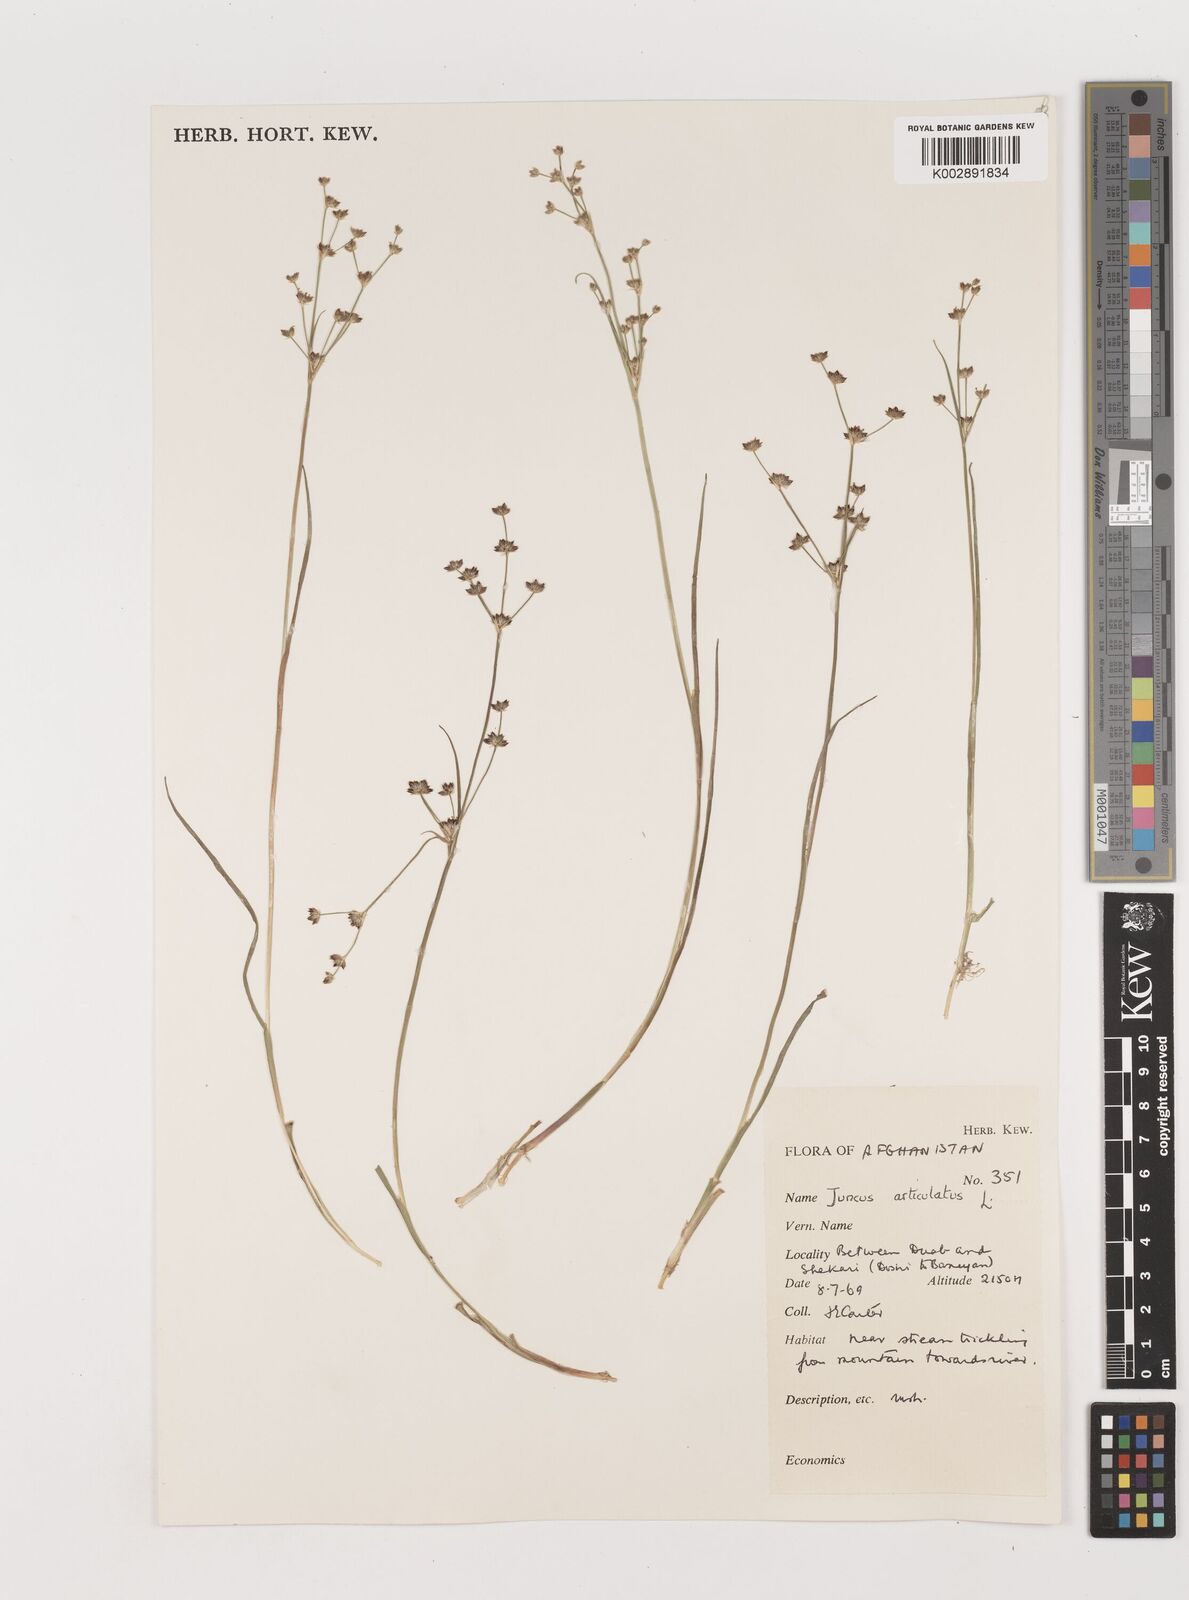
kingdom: Plantae
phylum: Tracheophyta
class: Liliopsida
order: Poales
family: Juncaceae
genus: Juncus
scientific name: Juncus articulatus
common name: Jointed rush
